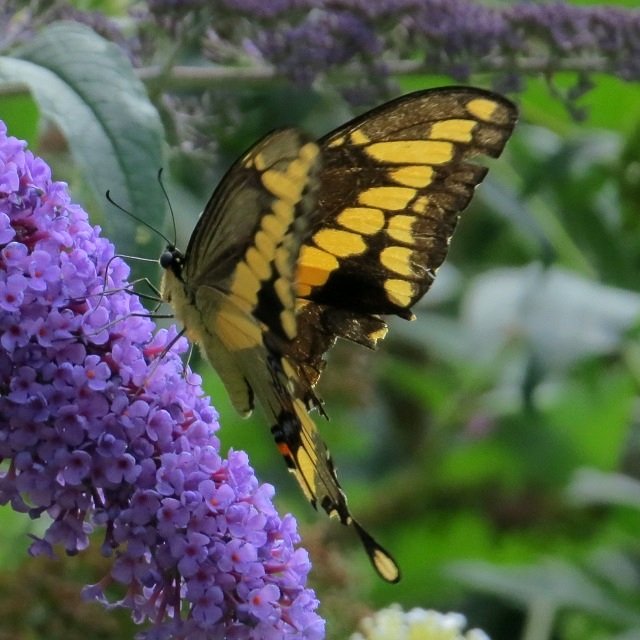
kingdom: Animalia
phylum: Arthropoda
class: Insecta
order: Lepidoptera
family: Papilionidae
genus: Papilio
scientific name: Papilio cresphontes
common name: Eastern Giant Swallowtail
